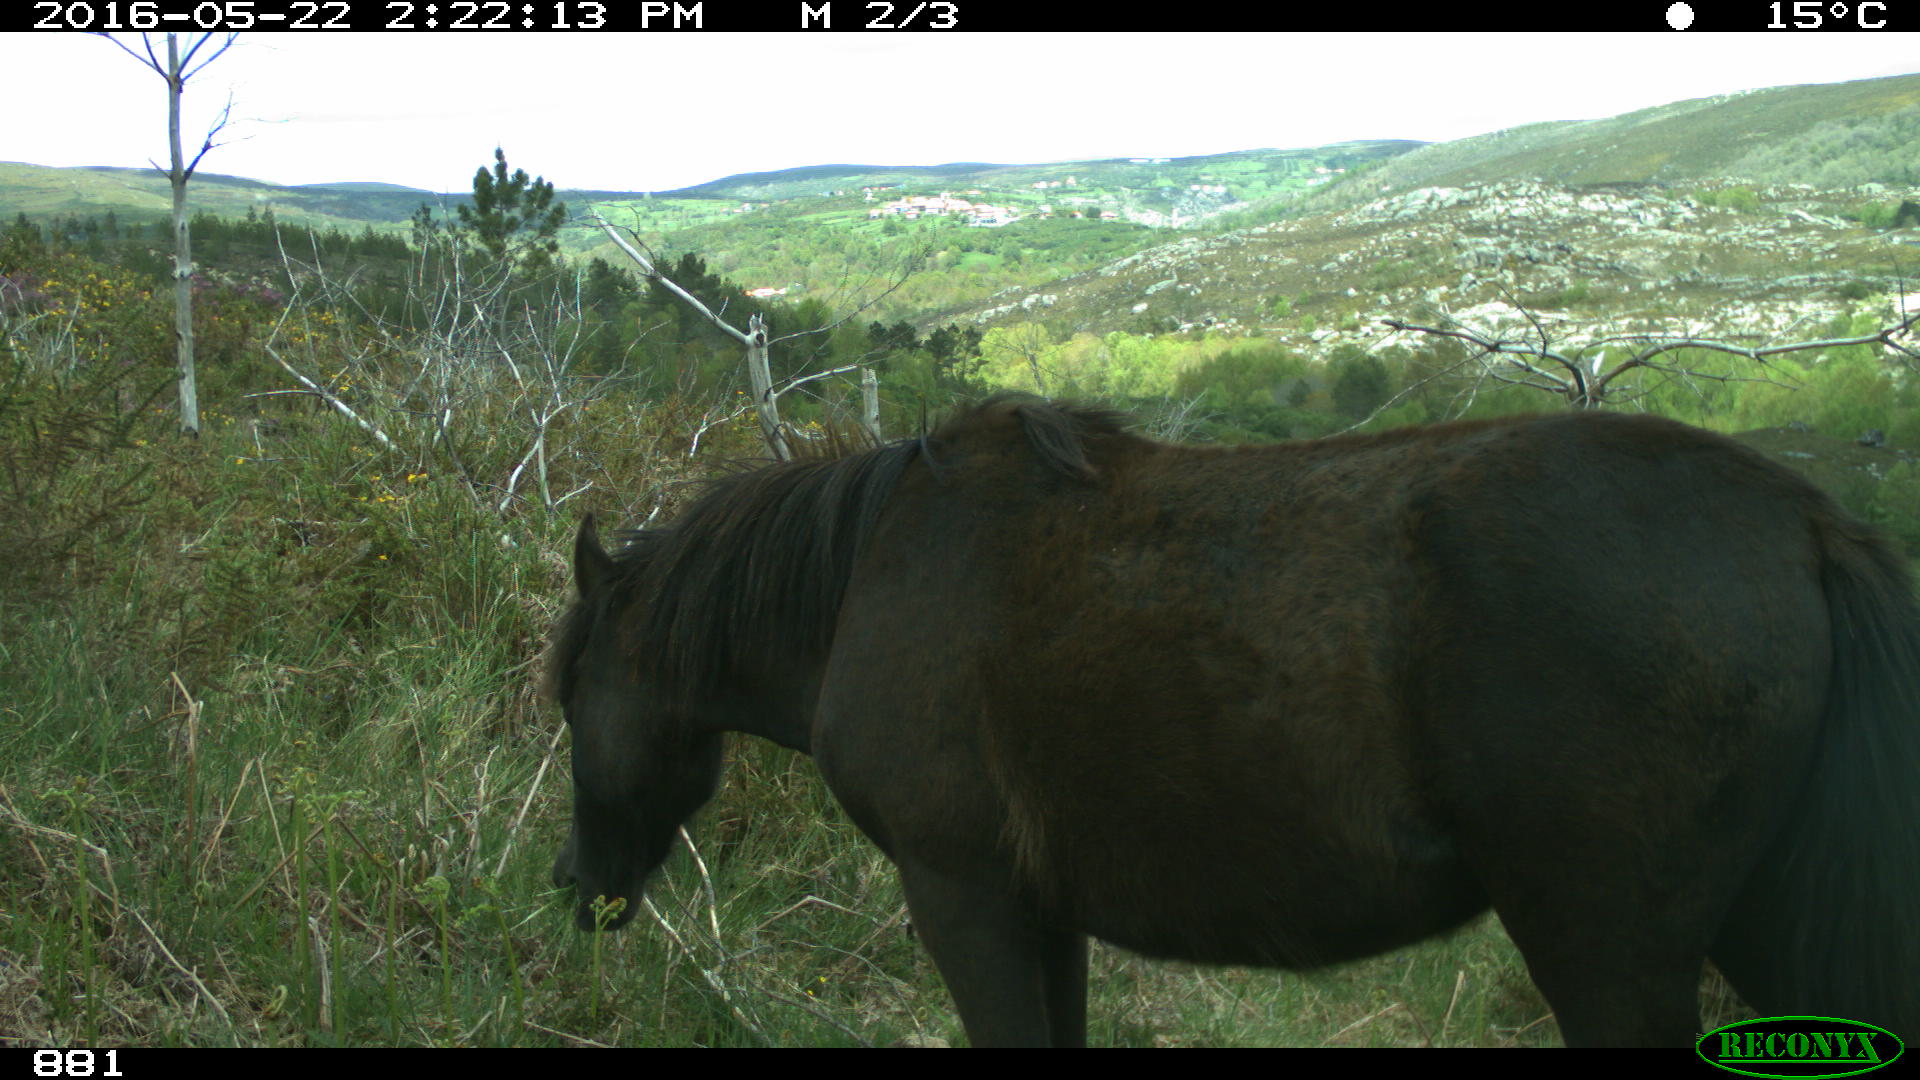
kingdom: Animalia
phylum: Chordata
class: Mammalia
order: Perissodactyla
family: Equidae
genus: Equus
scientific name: Equus caballus
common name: Horse
